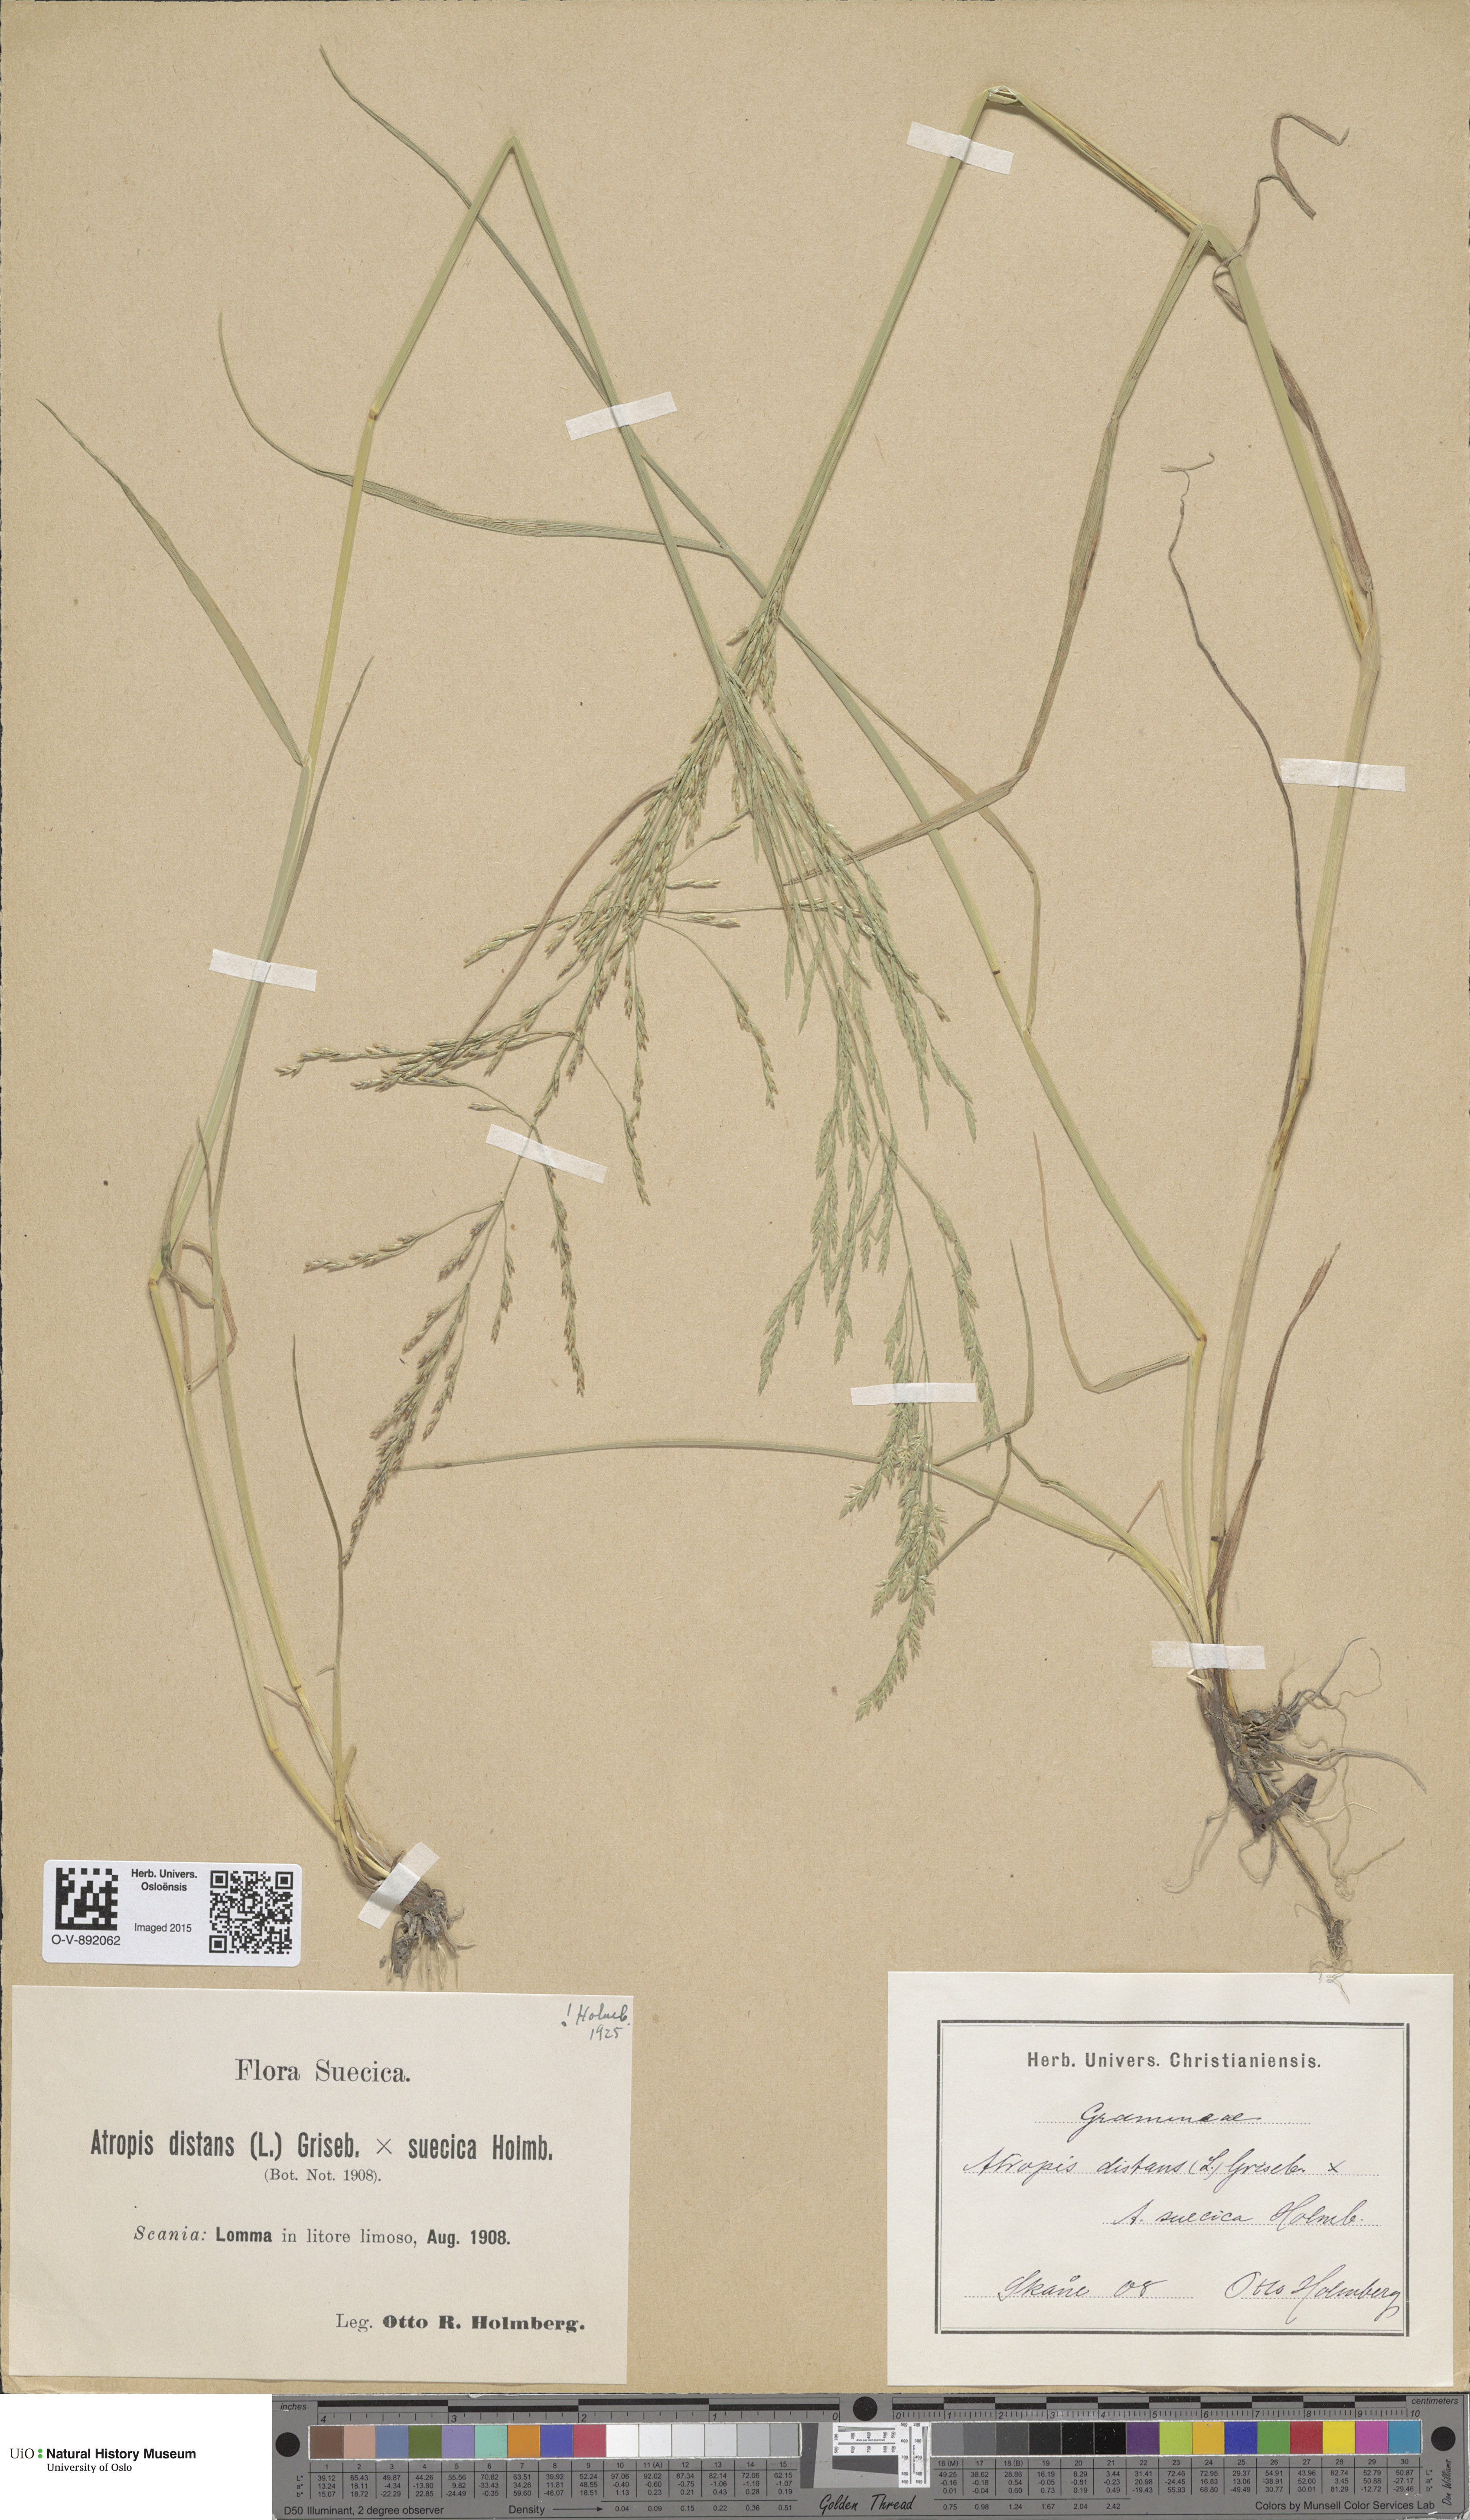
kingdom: Plantae
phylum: Tracheophyta
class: Liliopsida
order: Poales
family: Poaceae
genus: Puccinellia
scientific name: Puccinellia
